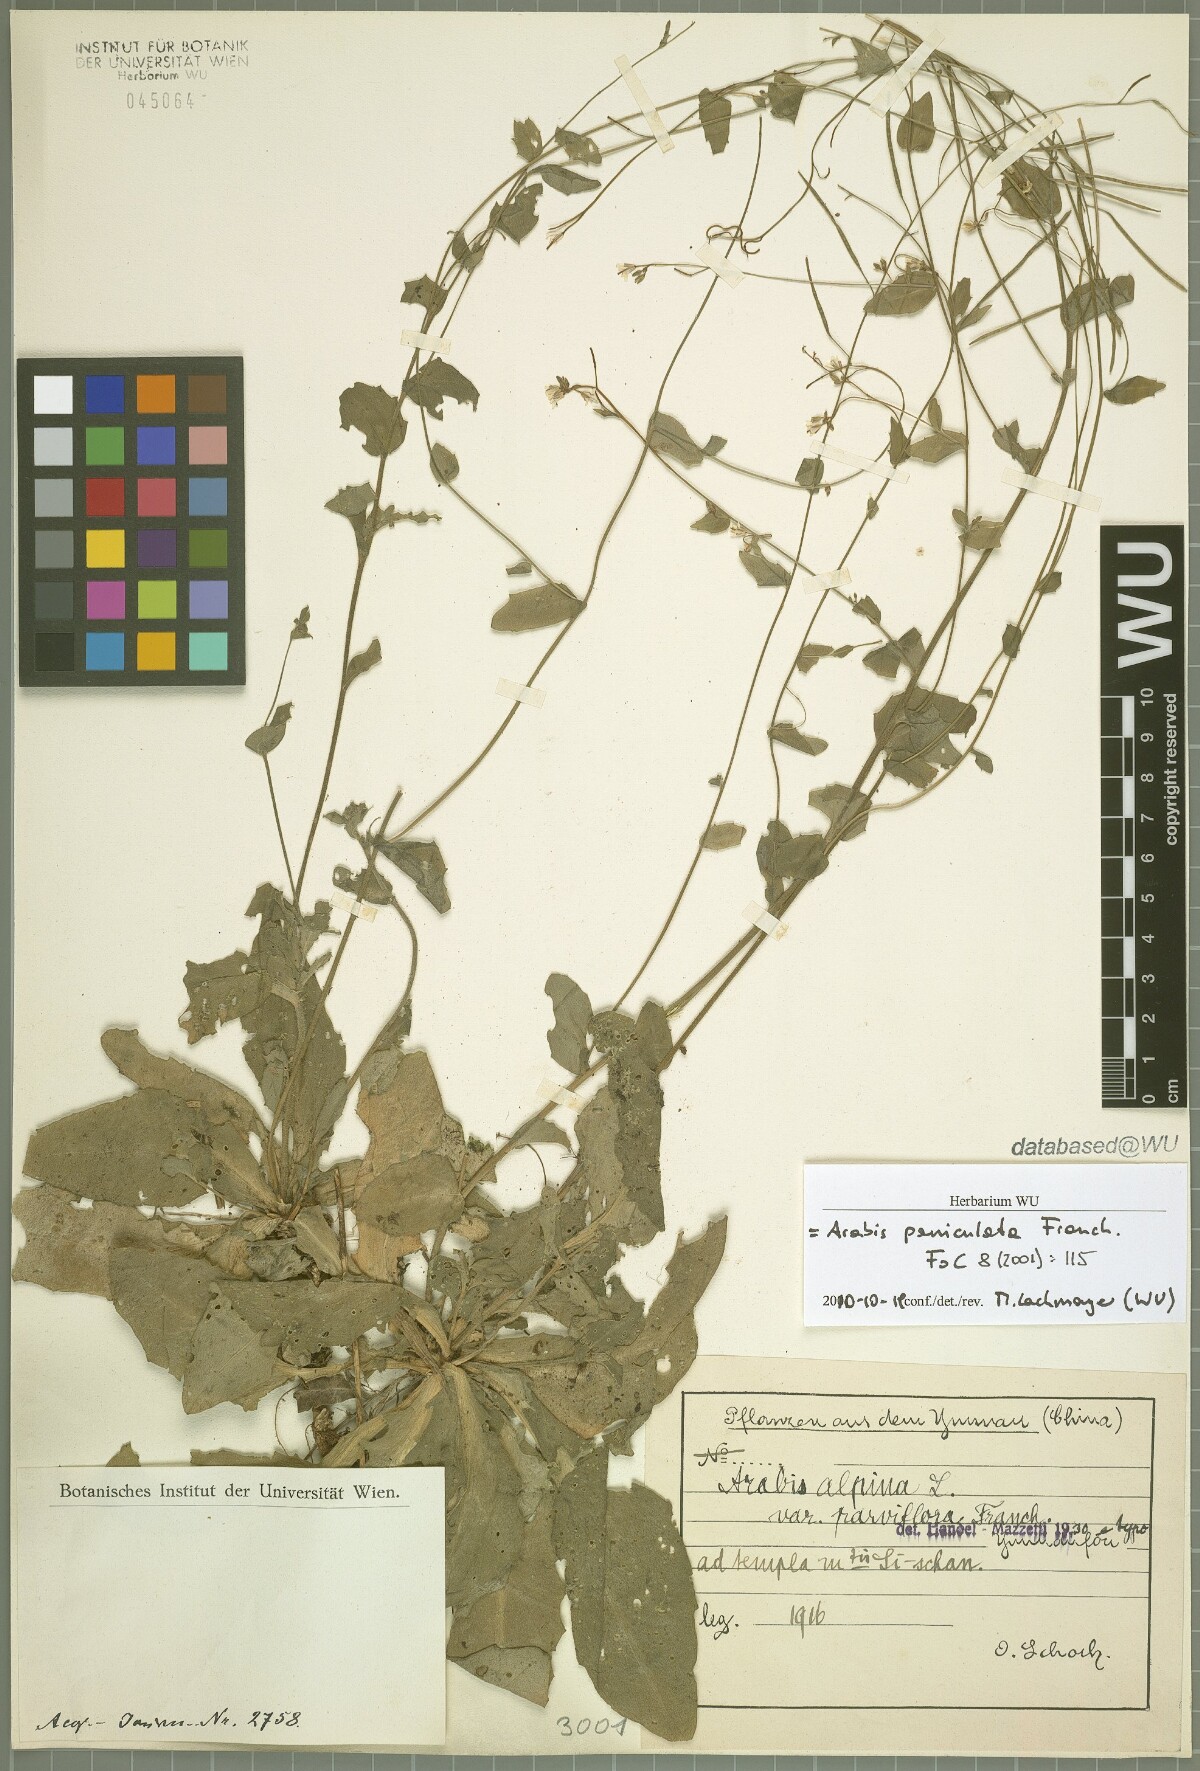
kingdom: Plantae
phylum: Tracheophyta
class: Magnoliopsida
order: Brassicales
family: Brassicaceae
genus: Arabis
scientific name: Arabis paniculata
